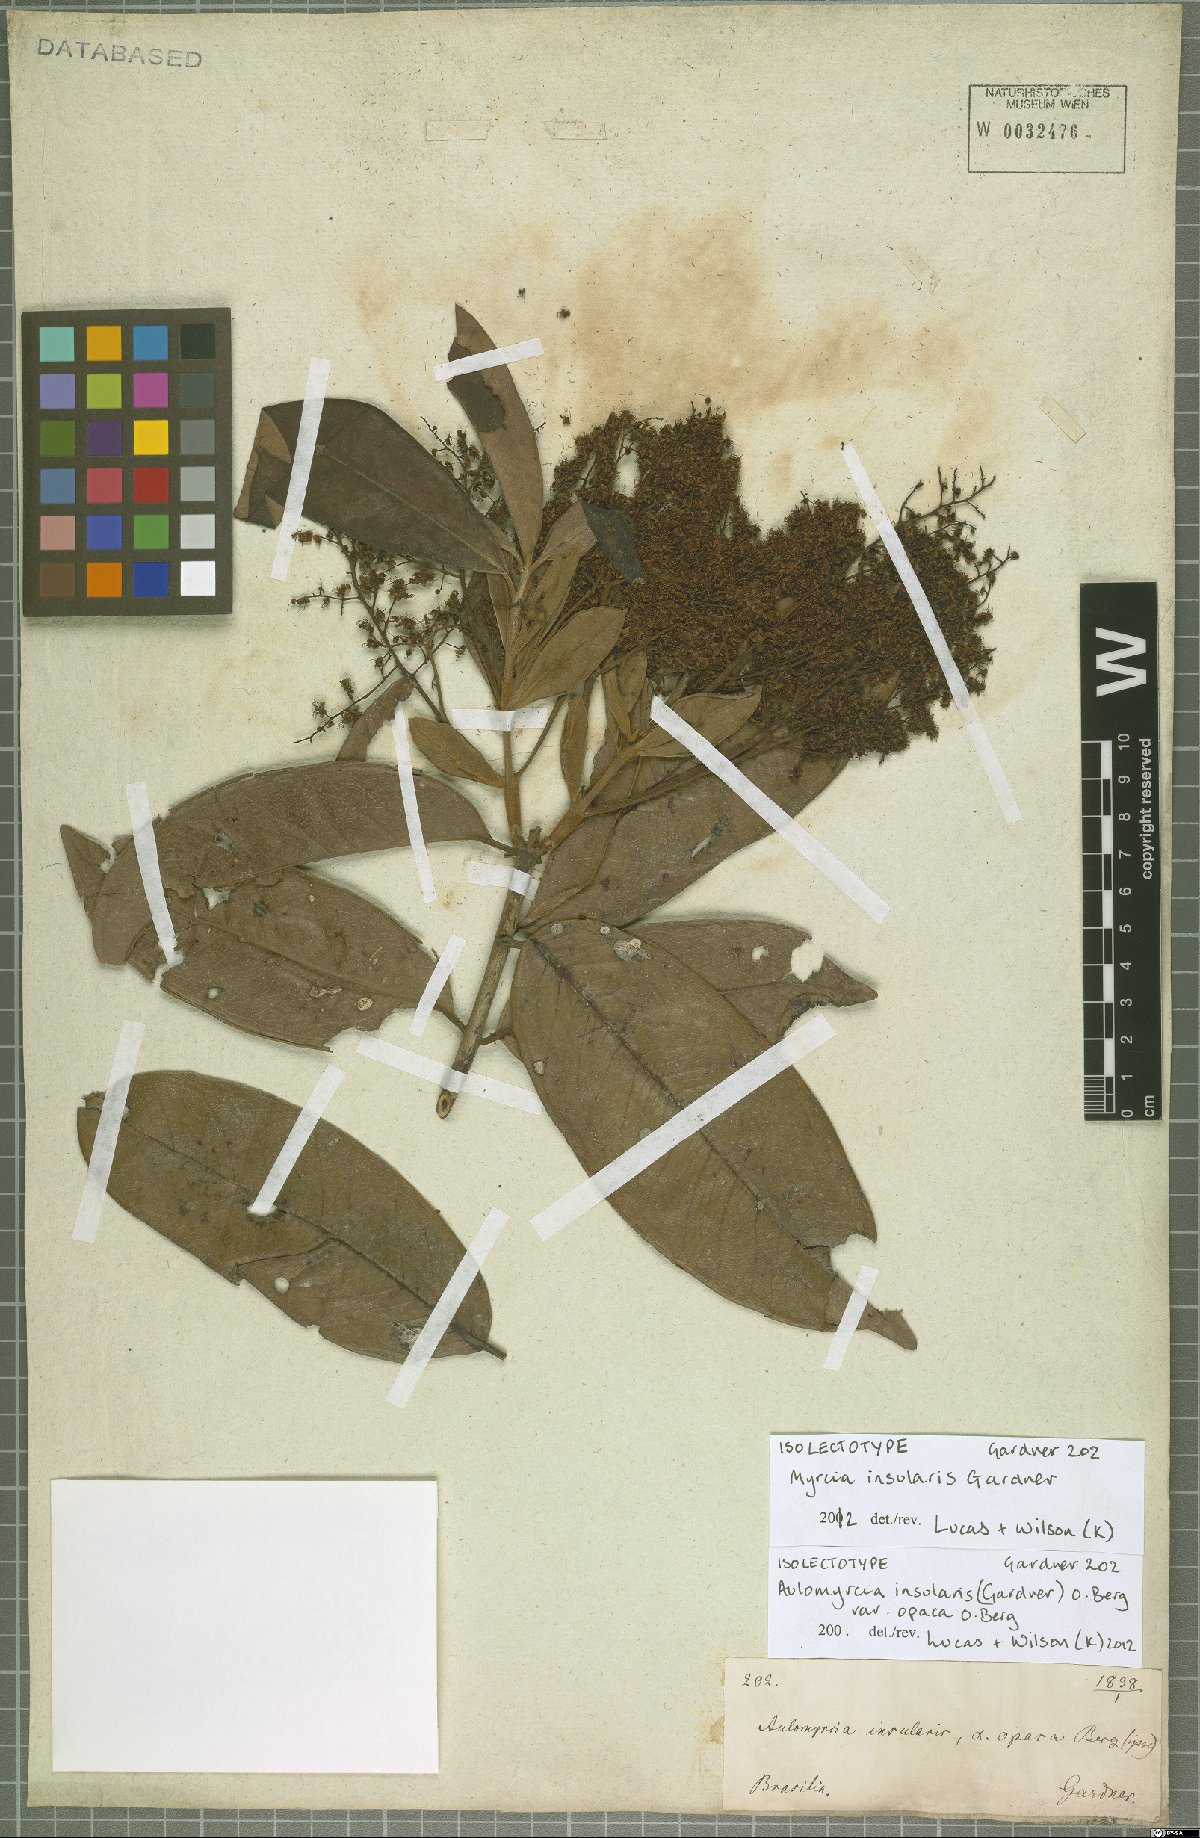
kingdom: Plantae
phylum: Tracheophyta
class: Magnoliopsida
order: Myrtales
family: Myrtaceae
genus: Myrcia
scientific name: Myrcia insularis
